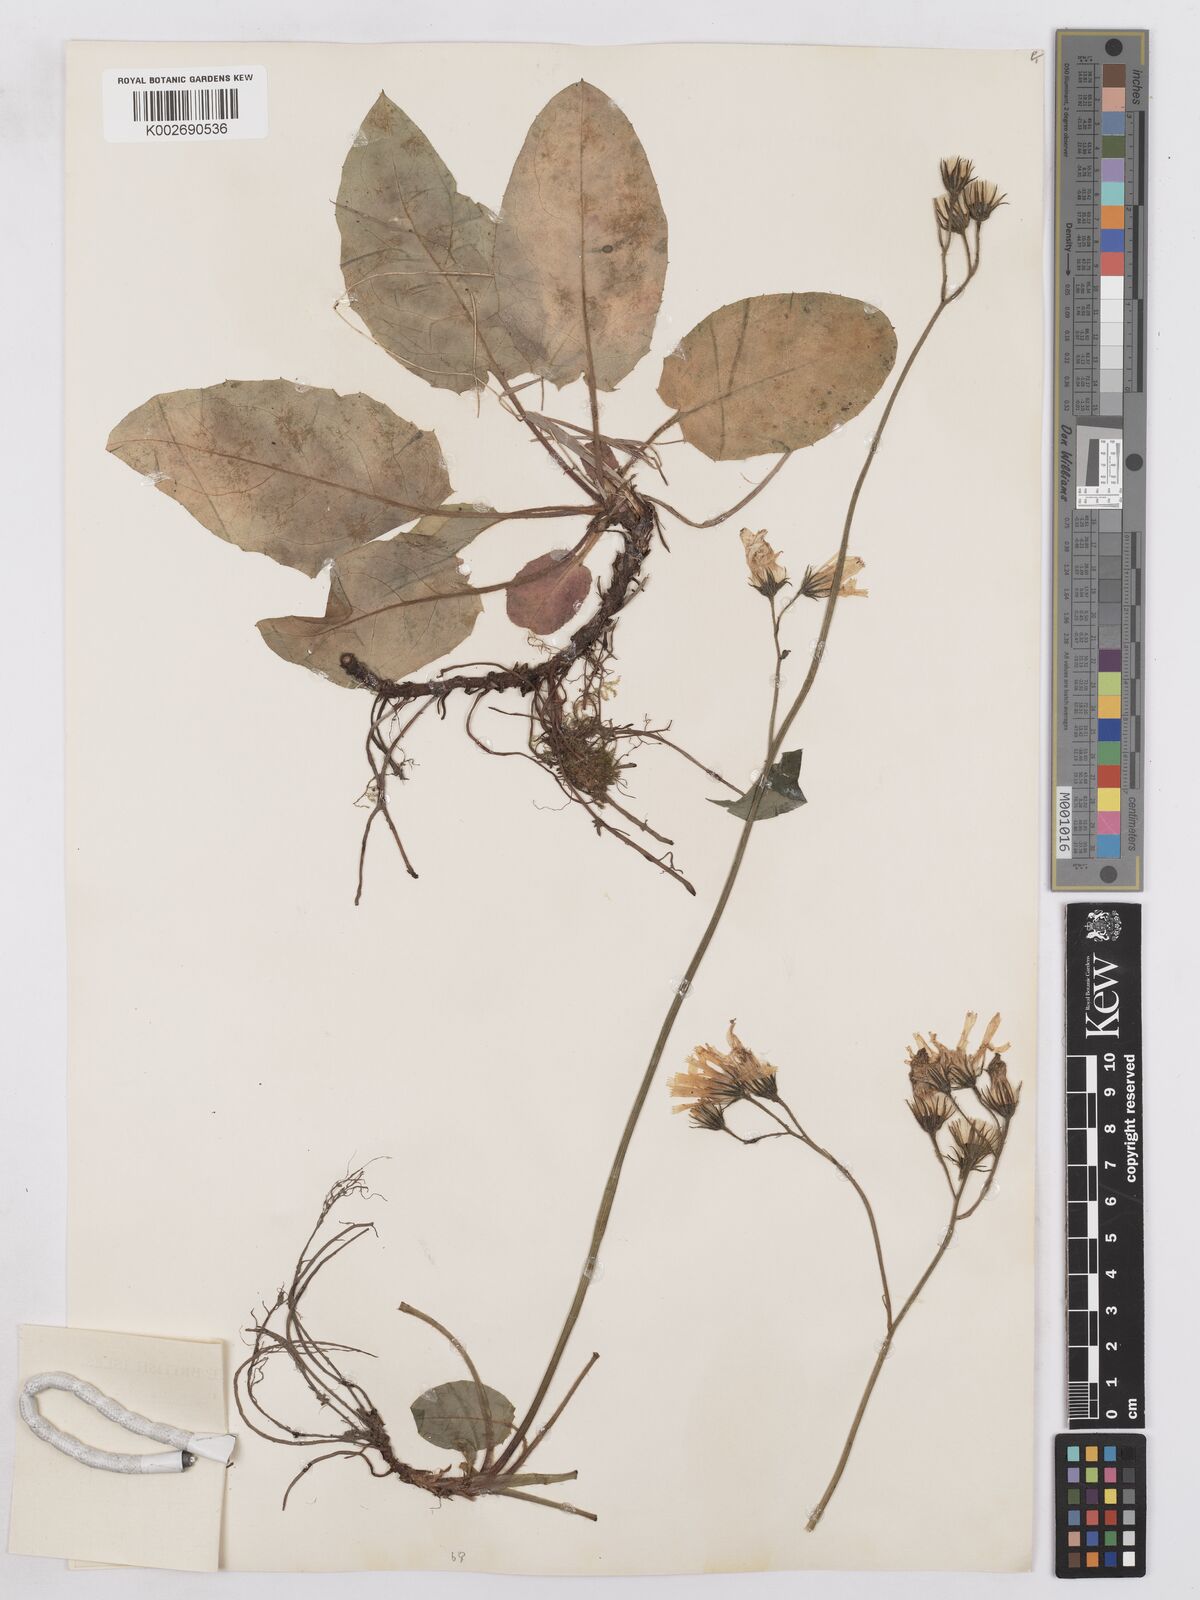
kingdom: Plantae
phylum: Tracheophyta
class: Magnoliopsida
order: Asterales
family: Asteraceae
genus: Hieracium
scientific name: Hieracium basalticola
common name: Basalt hawkweed
